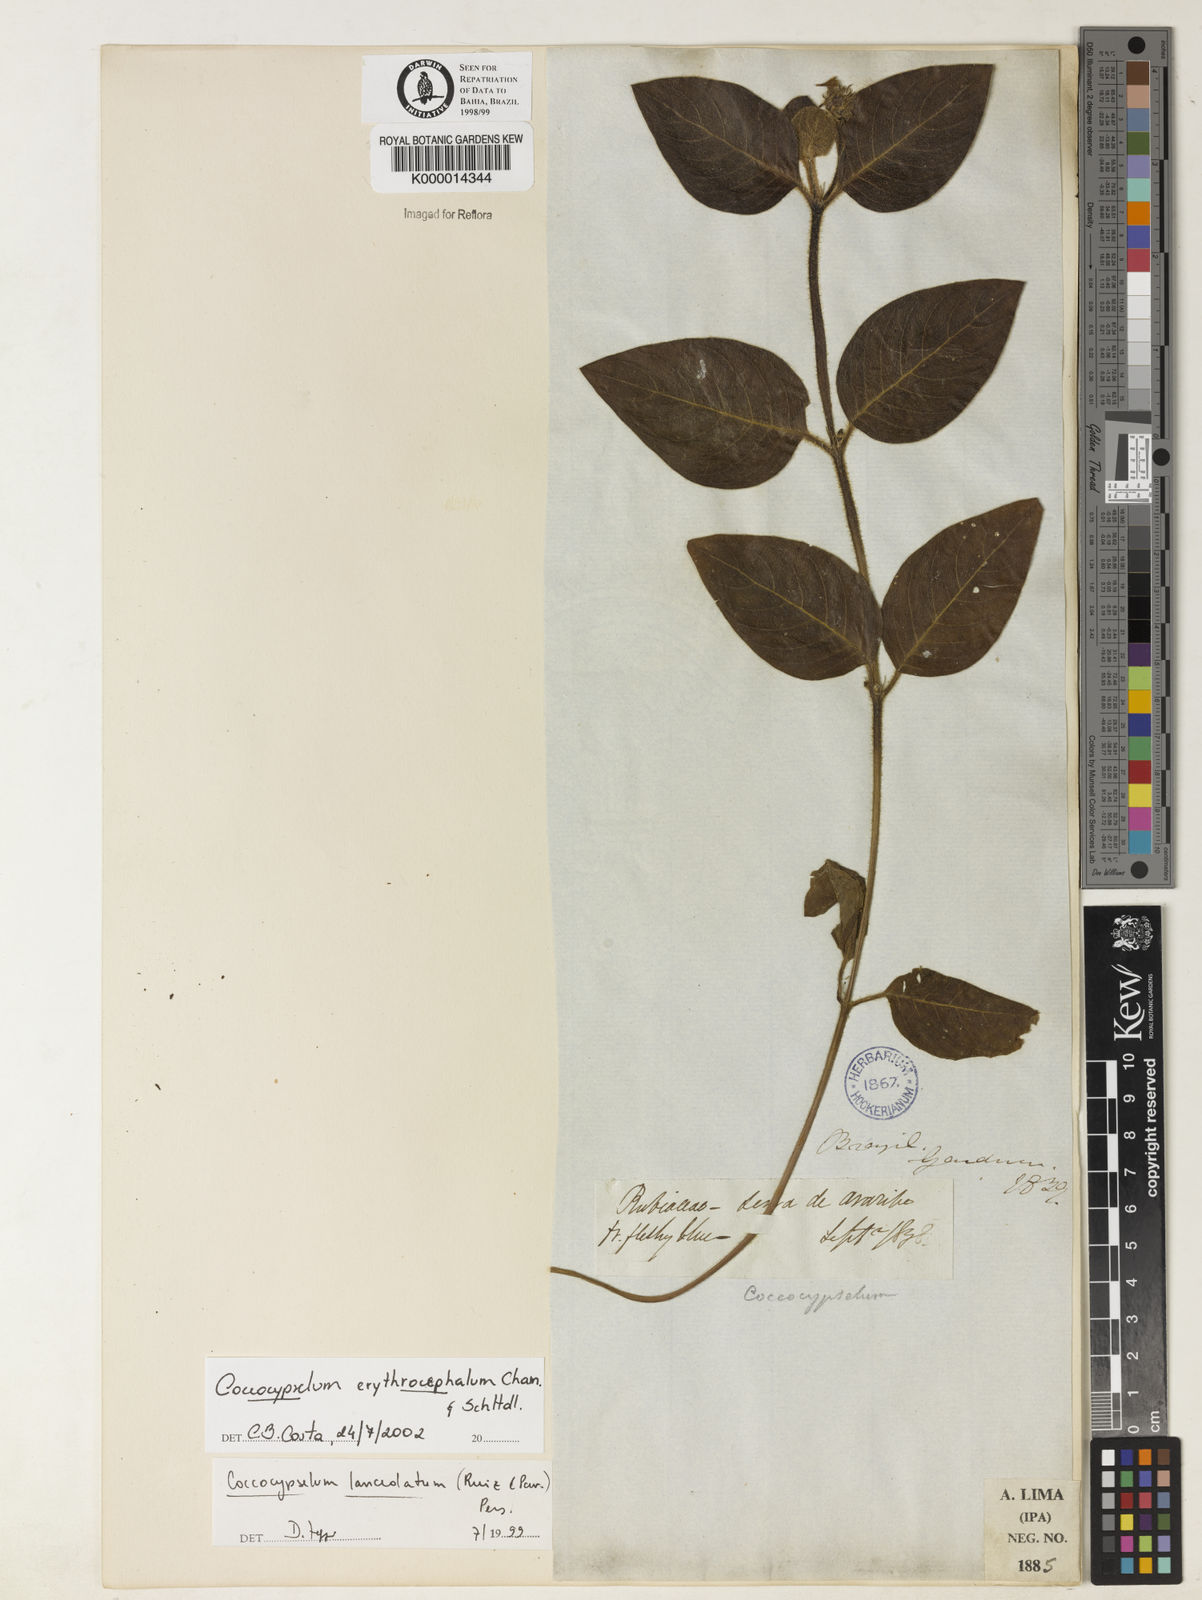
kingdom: Plantae
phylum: Tracheophyta
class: Magnoliopsida
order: Gentianales
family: Rubiaceae
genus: Coccocypselum
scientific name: Coccocypselum erythrocephalum
